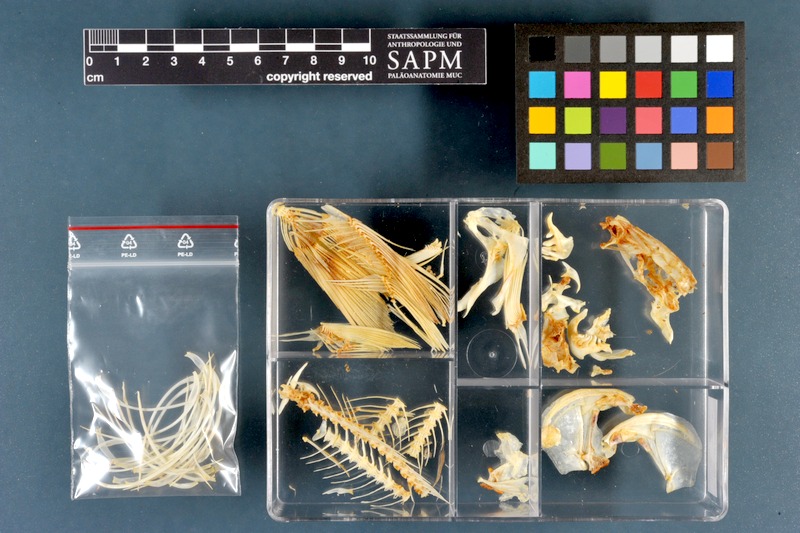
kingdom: Animalia
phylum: Chordata
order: Cypriniformes
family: Cyprinidae
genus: Rutilus
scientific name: Rutilus rutilus
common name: Roach
